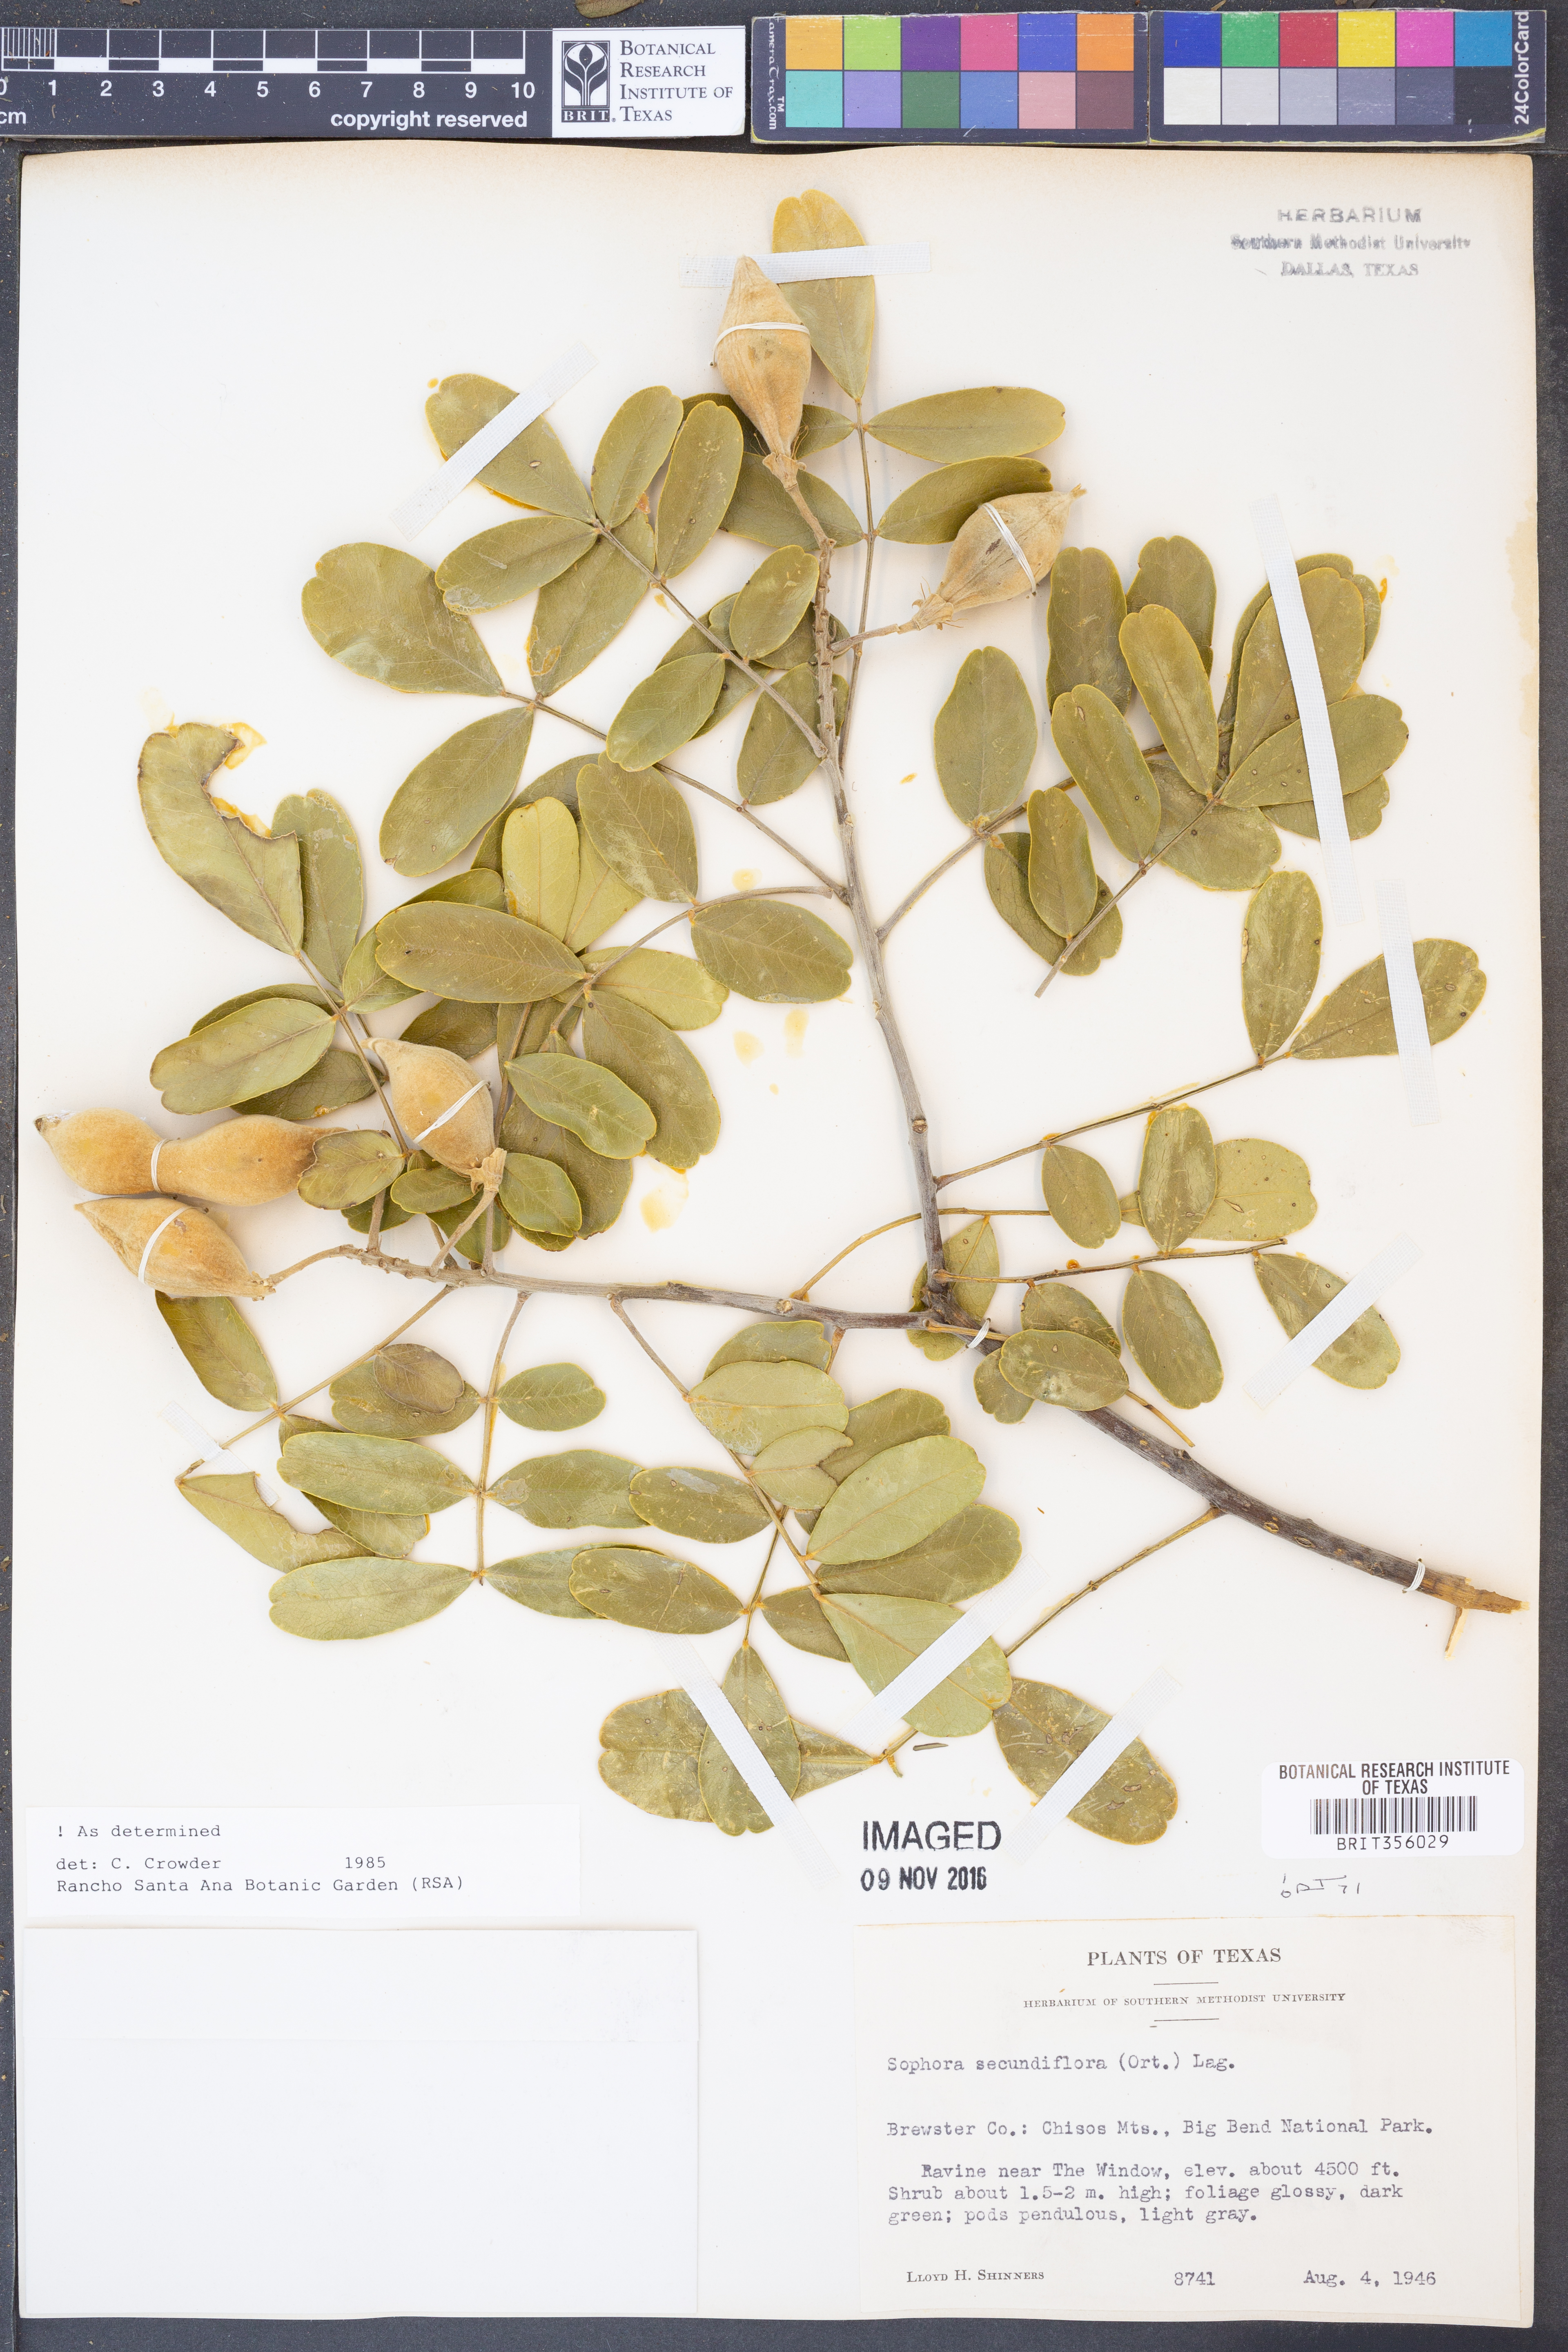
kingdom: Plantae
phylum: Tracheophyta
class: Magnoliopsida
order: Fabales
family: Fabaceae
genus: Dermatophyllum
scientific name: Dermatophyllum secundiflorum
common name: Texas-mountain-laurel
